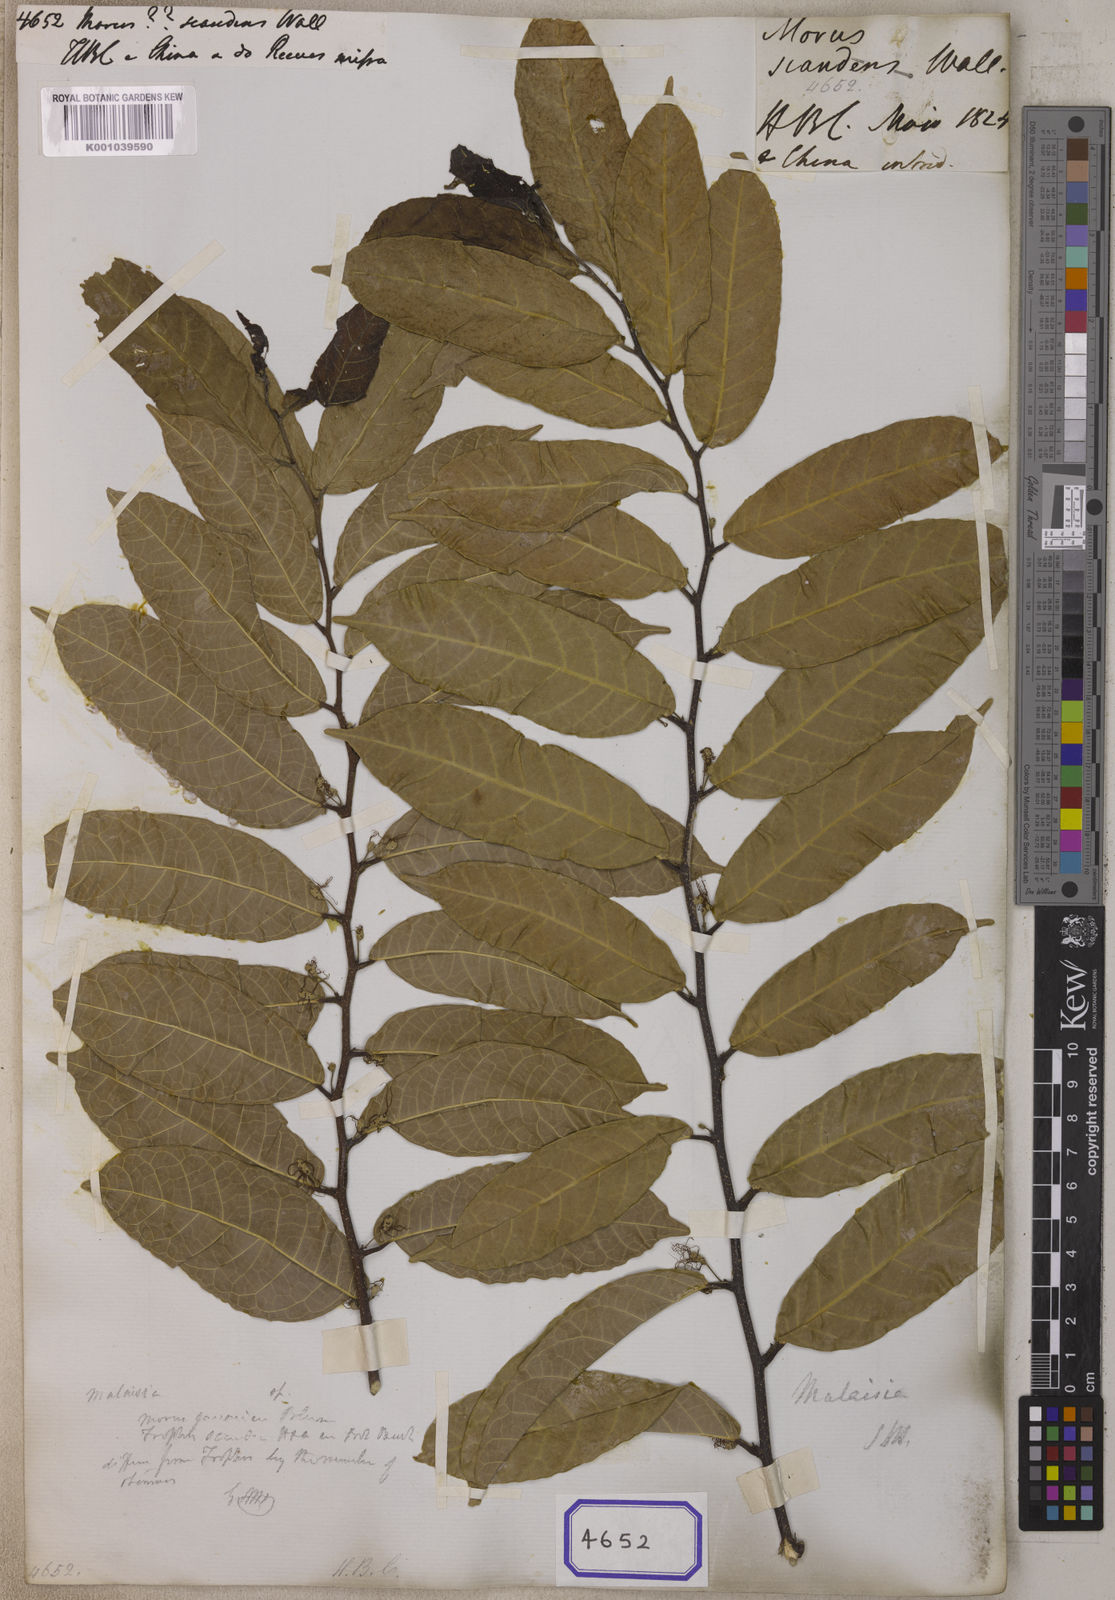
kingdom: Plantae
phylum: Tracheophyta
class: Magnoliopsida
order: Rosales
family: Moraceae
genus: Malaisia
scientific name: Malaisia scandens
